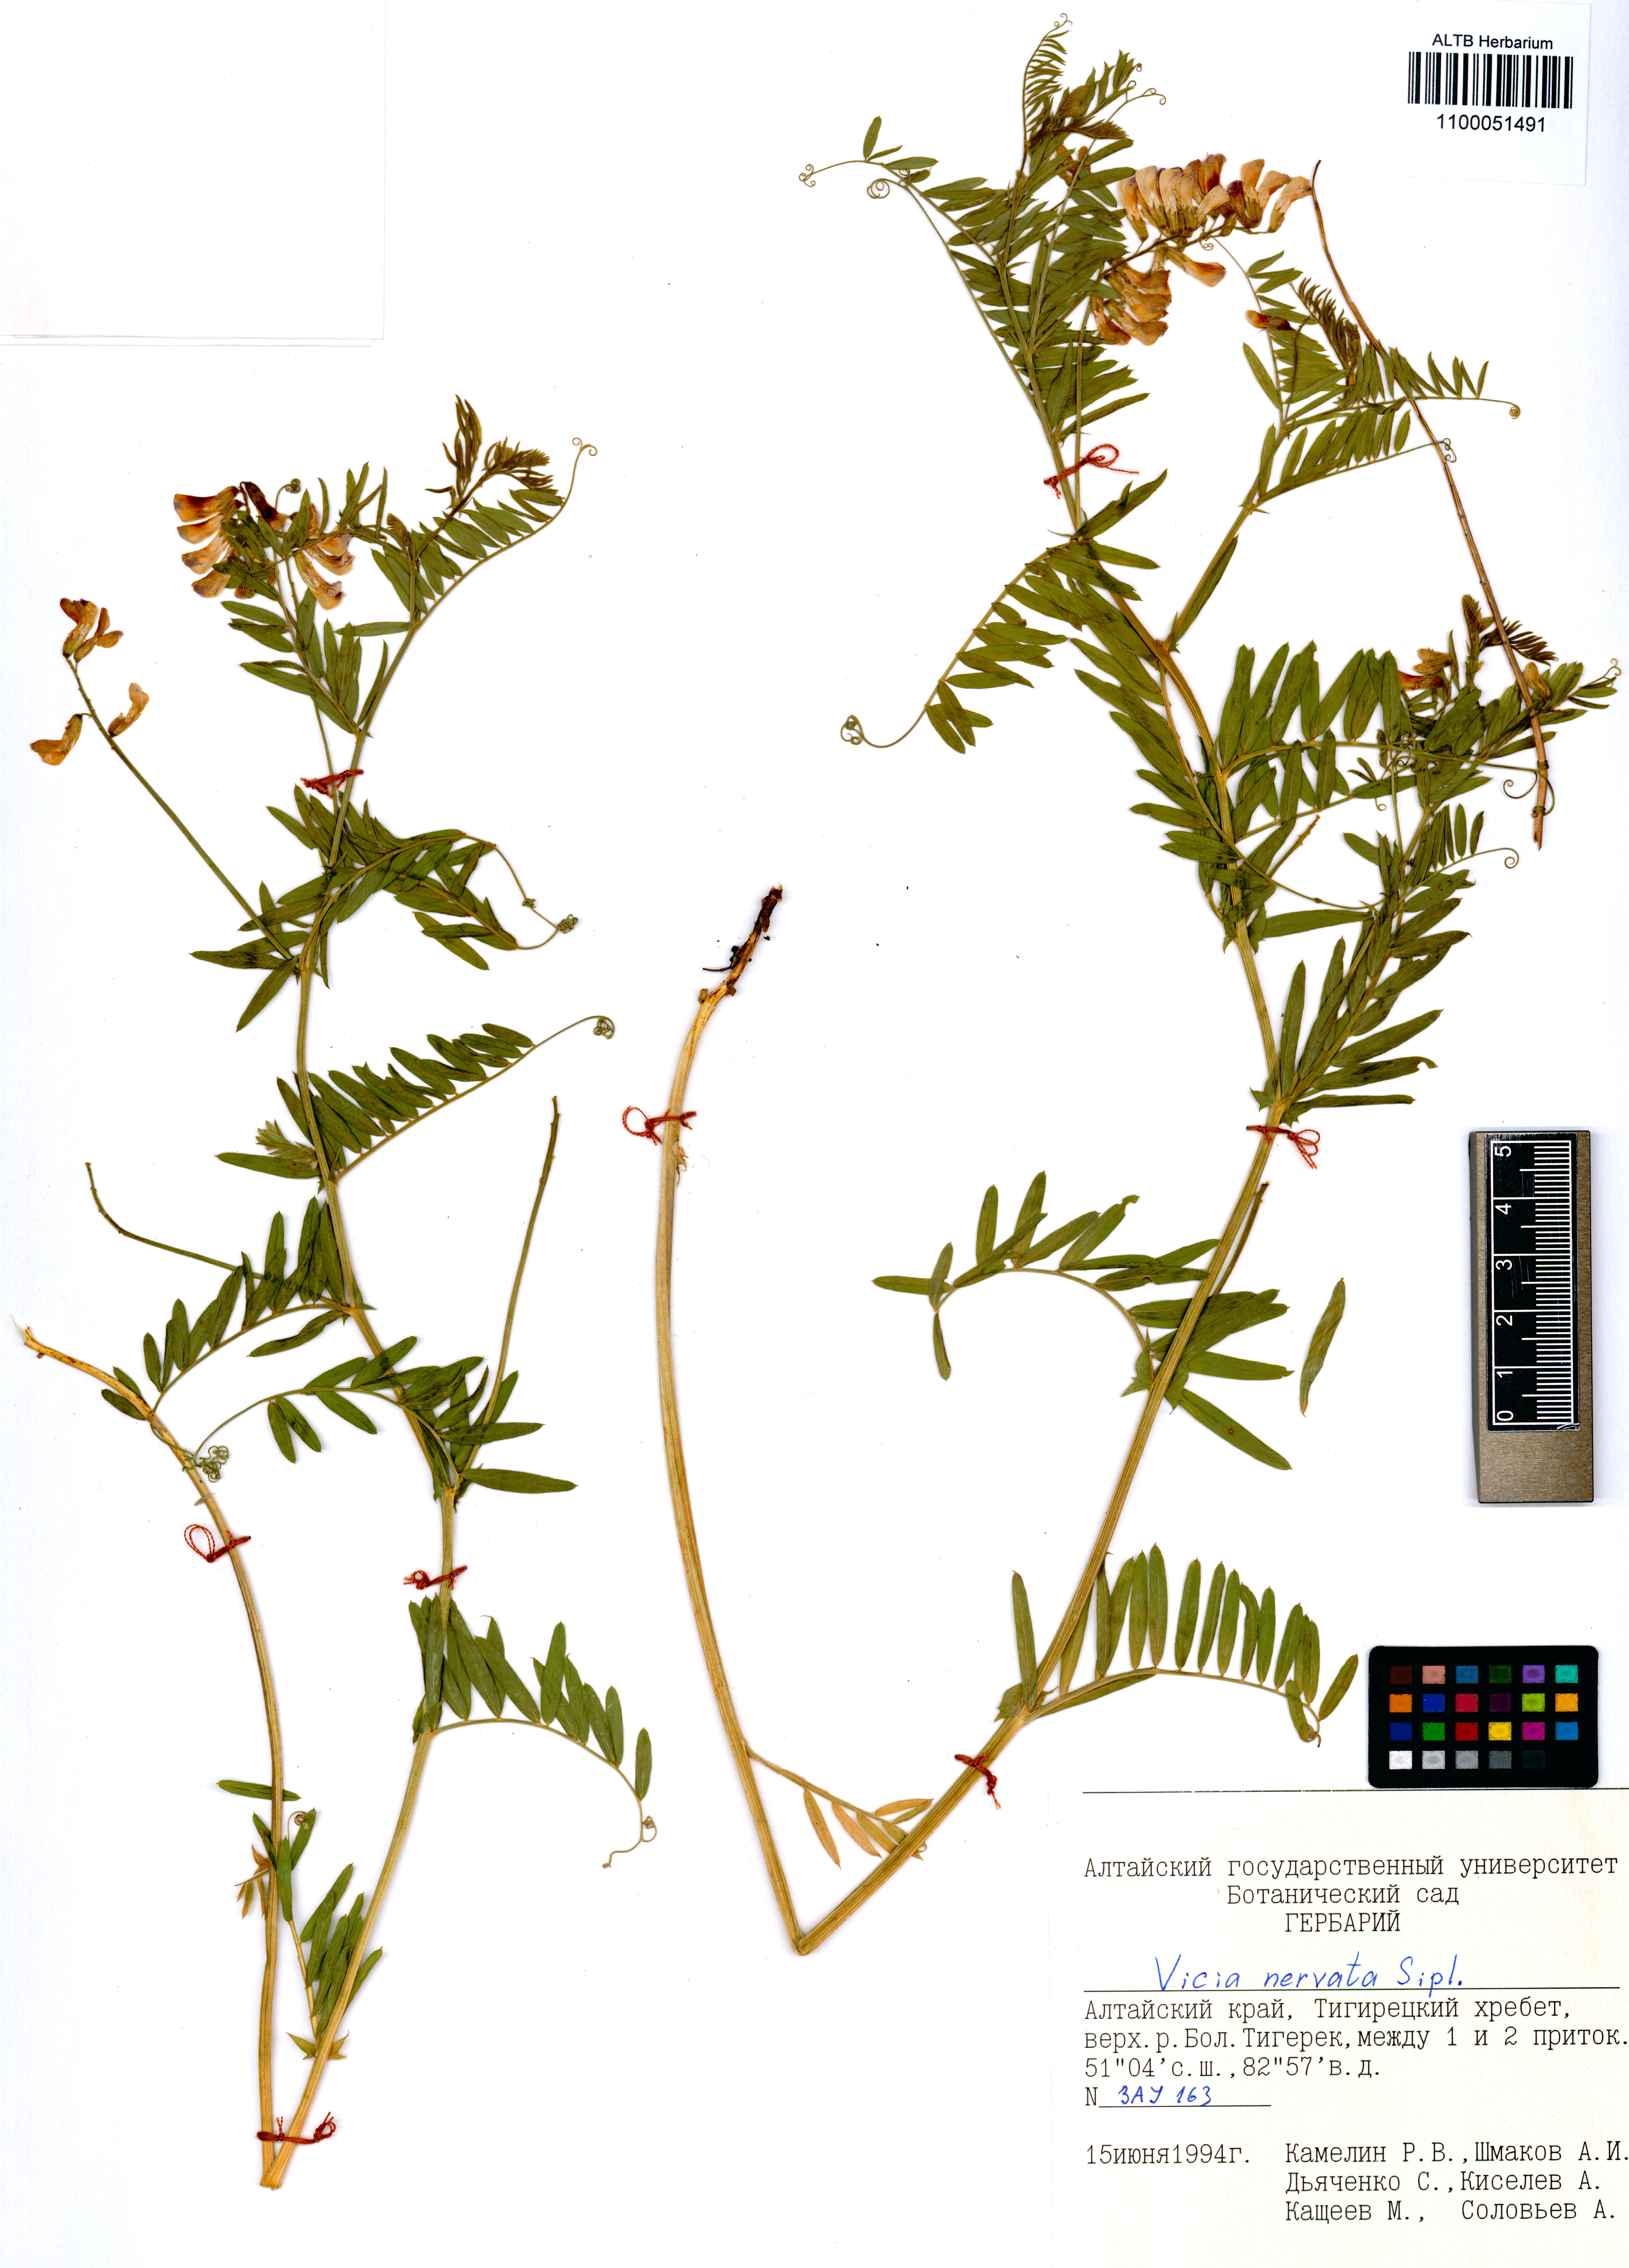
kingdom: Plantae
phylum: Tracheophyta
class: Magnoliopsida
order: Fabales
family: Fabaceae
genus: Vicia
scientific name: Vicia multicaulis
